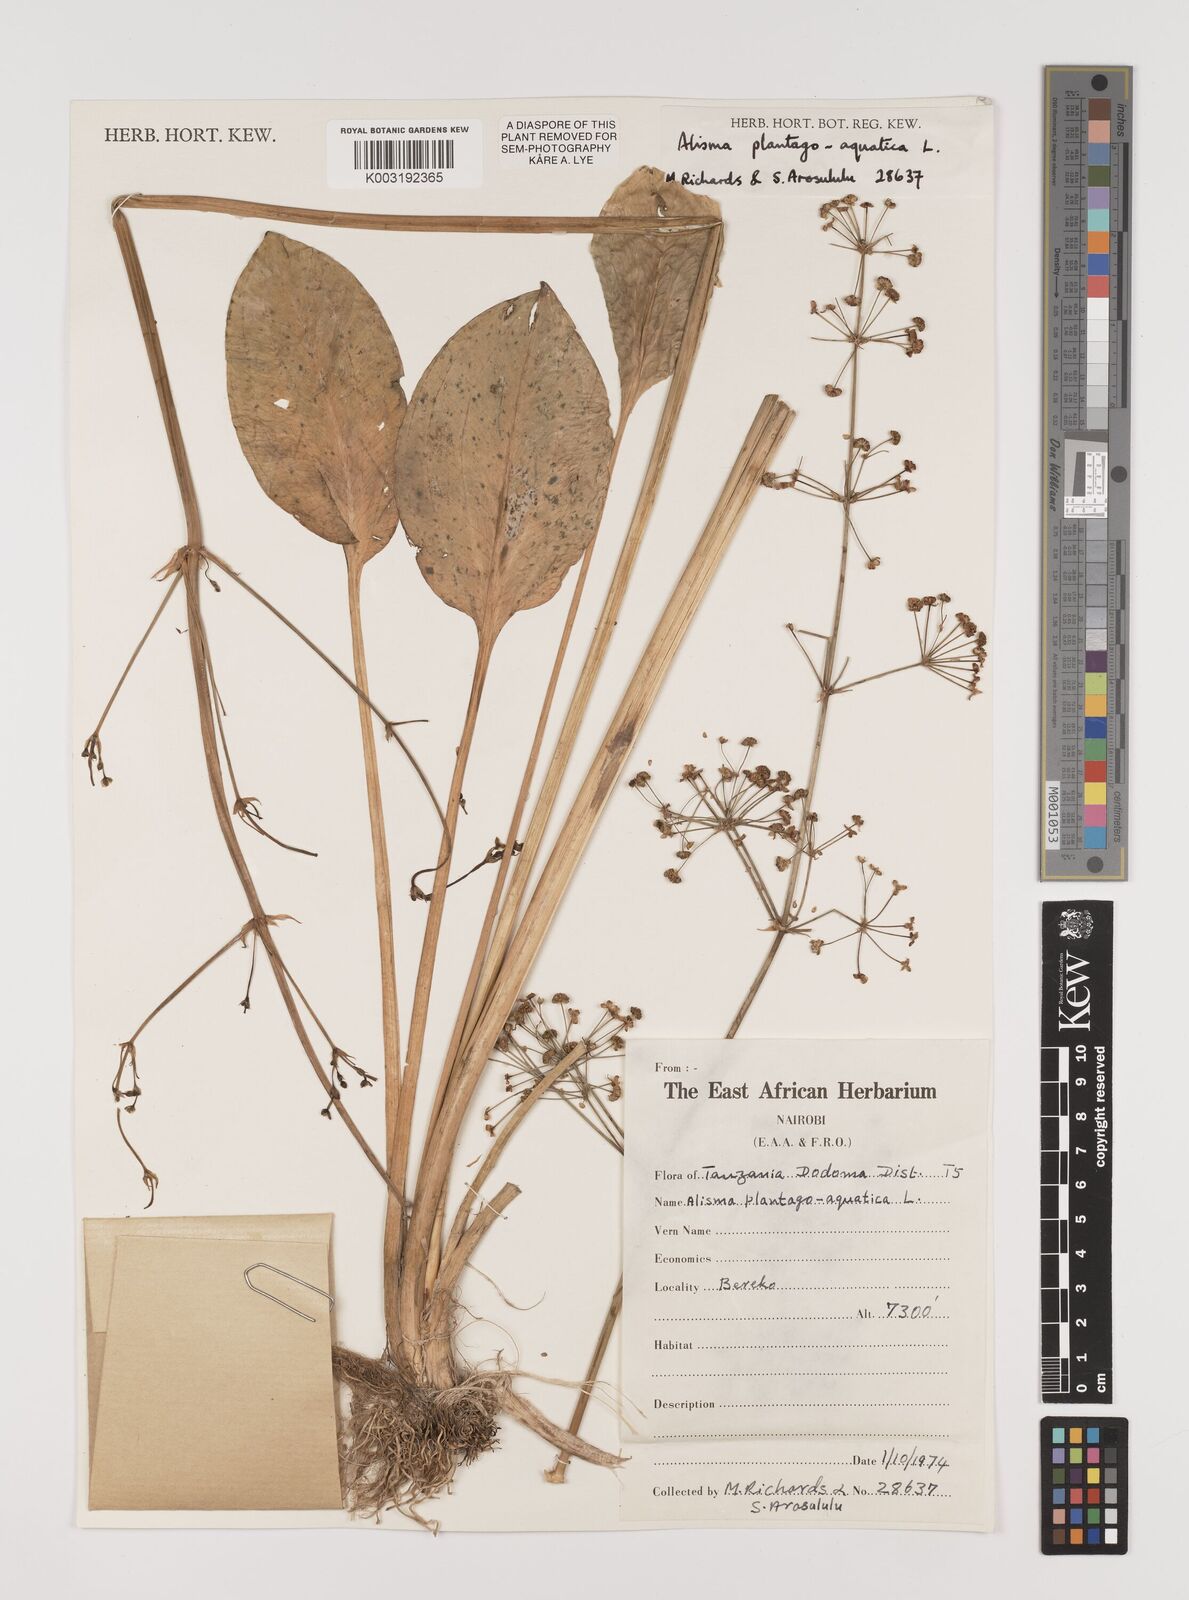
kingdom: Plantae
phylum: Tracheophyta
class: Liliopsida
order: Alismatales
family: Alismataceae
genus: Alisma
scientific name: Alisma plantago-aquatica
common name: Water-plantain
